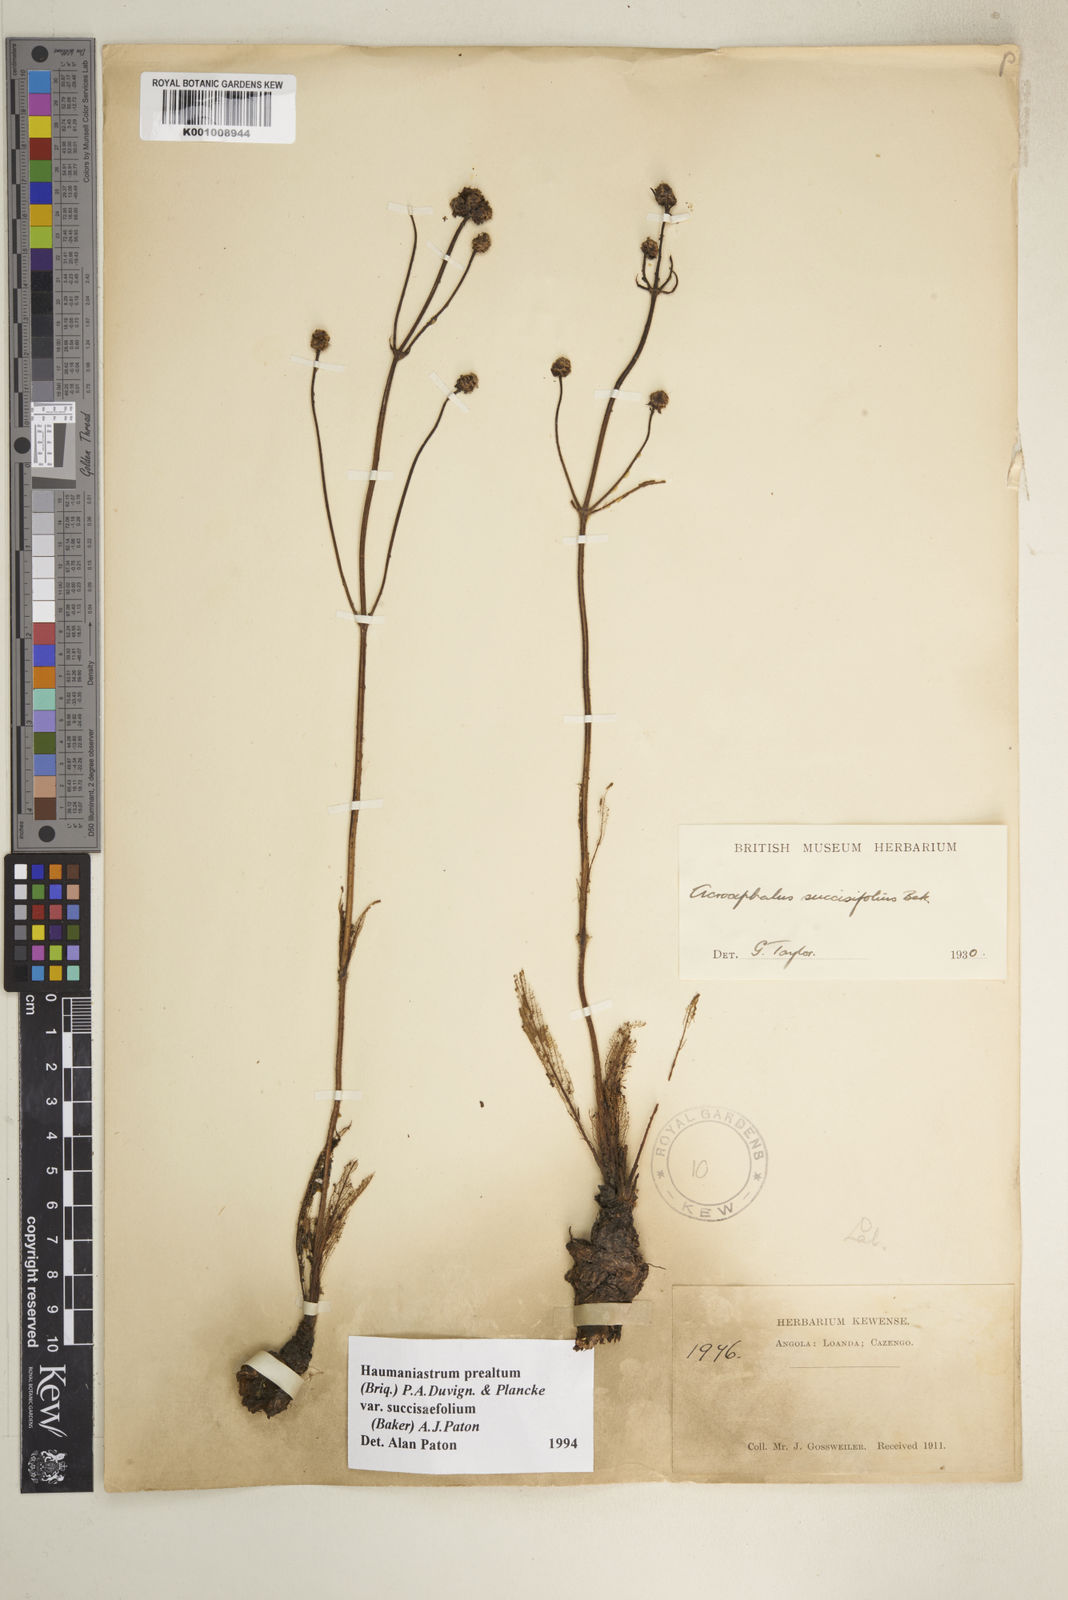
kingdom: Plantae
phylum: Tracheophyta
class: Magnoliopsida
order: Lamiales
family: Lamiaceae
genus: Haumaniastrum
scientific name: Haumaniastrum
